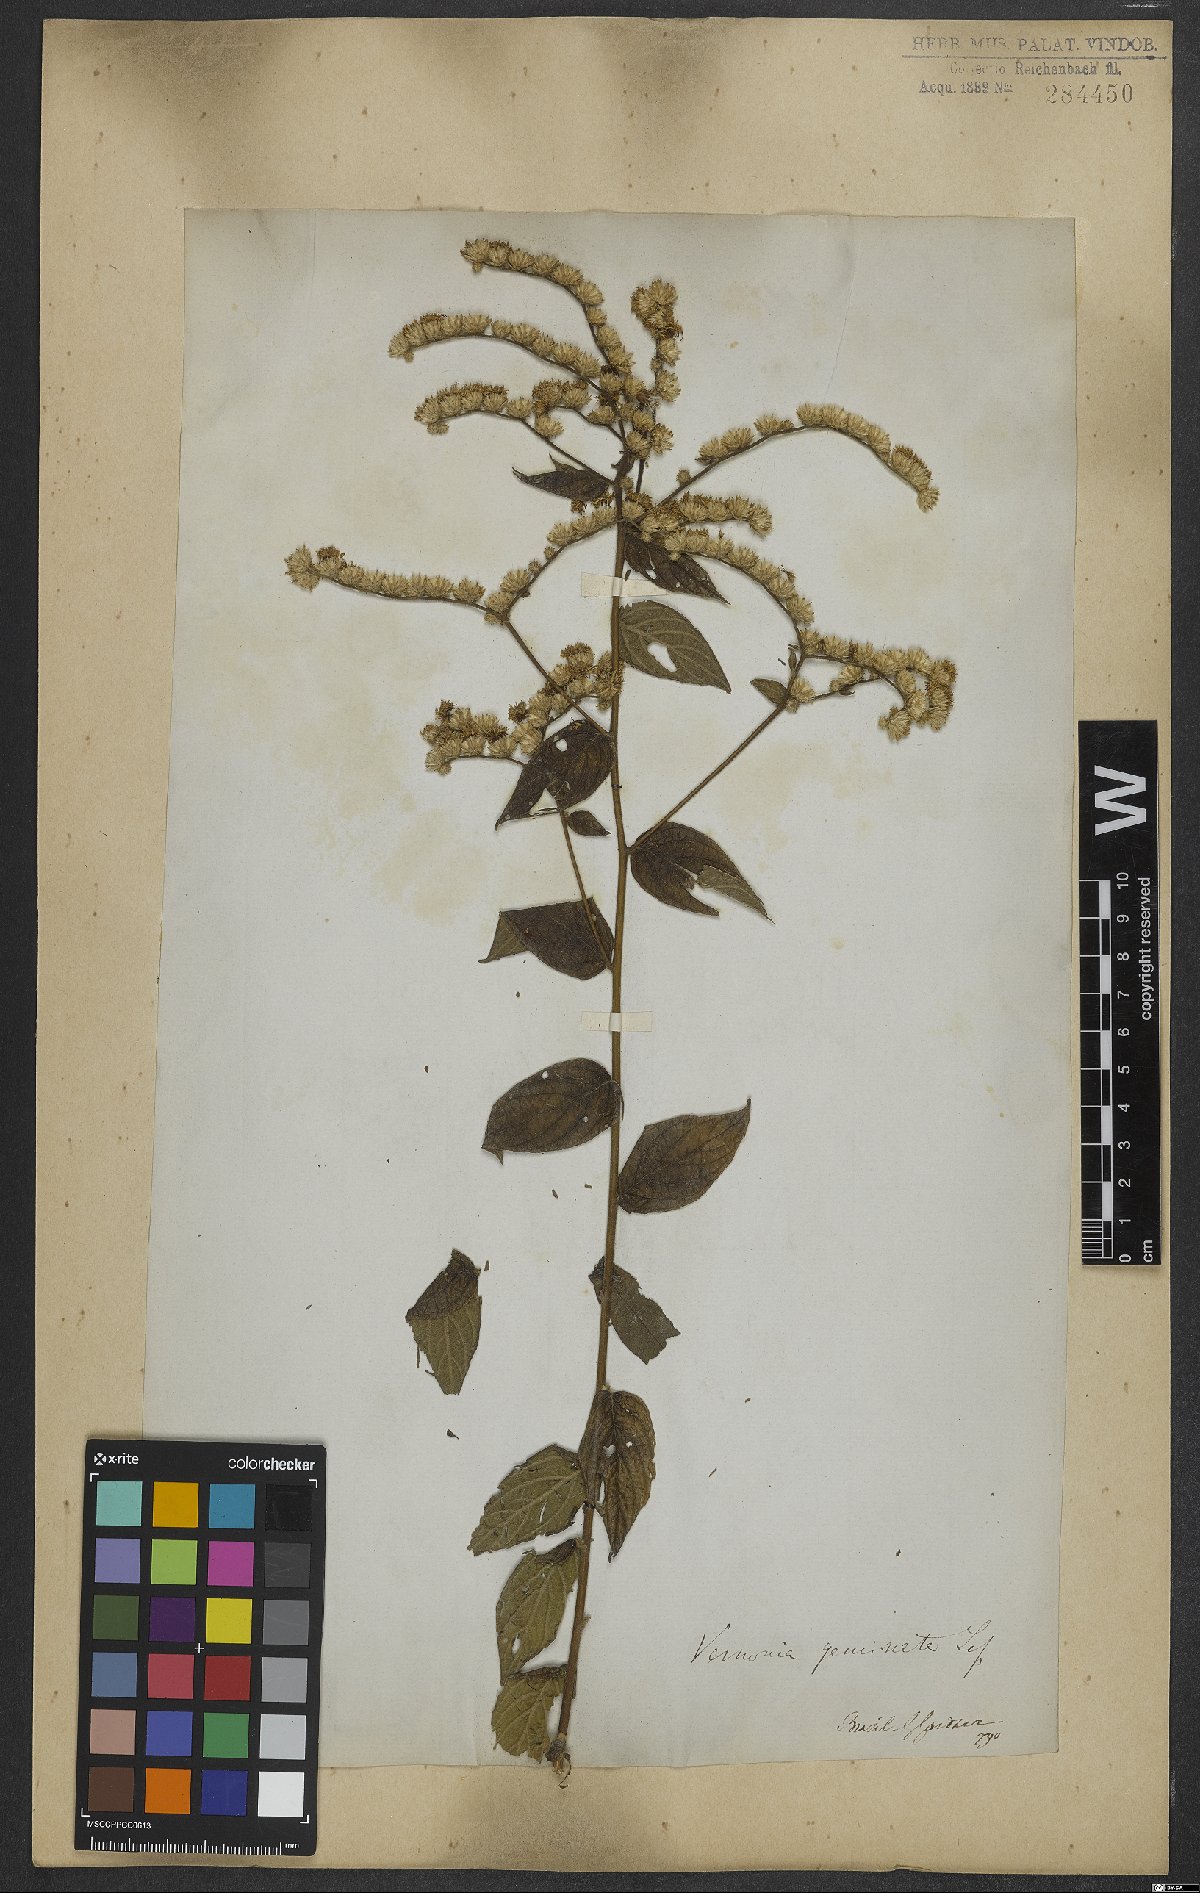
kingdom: Plantae
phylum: Tracheophyta
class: Magnoliopsida
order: Asterales
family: Asteraceae
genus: Lepidaploa
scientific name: Lepidaploa subsquarrosa
